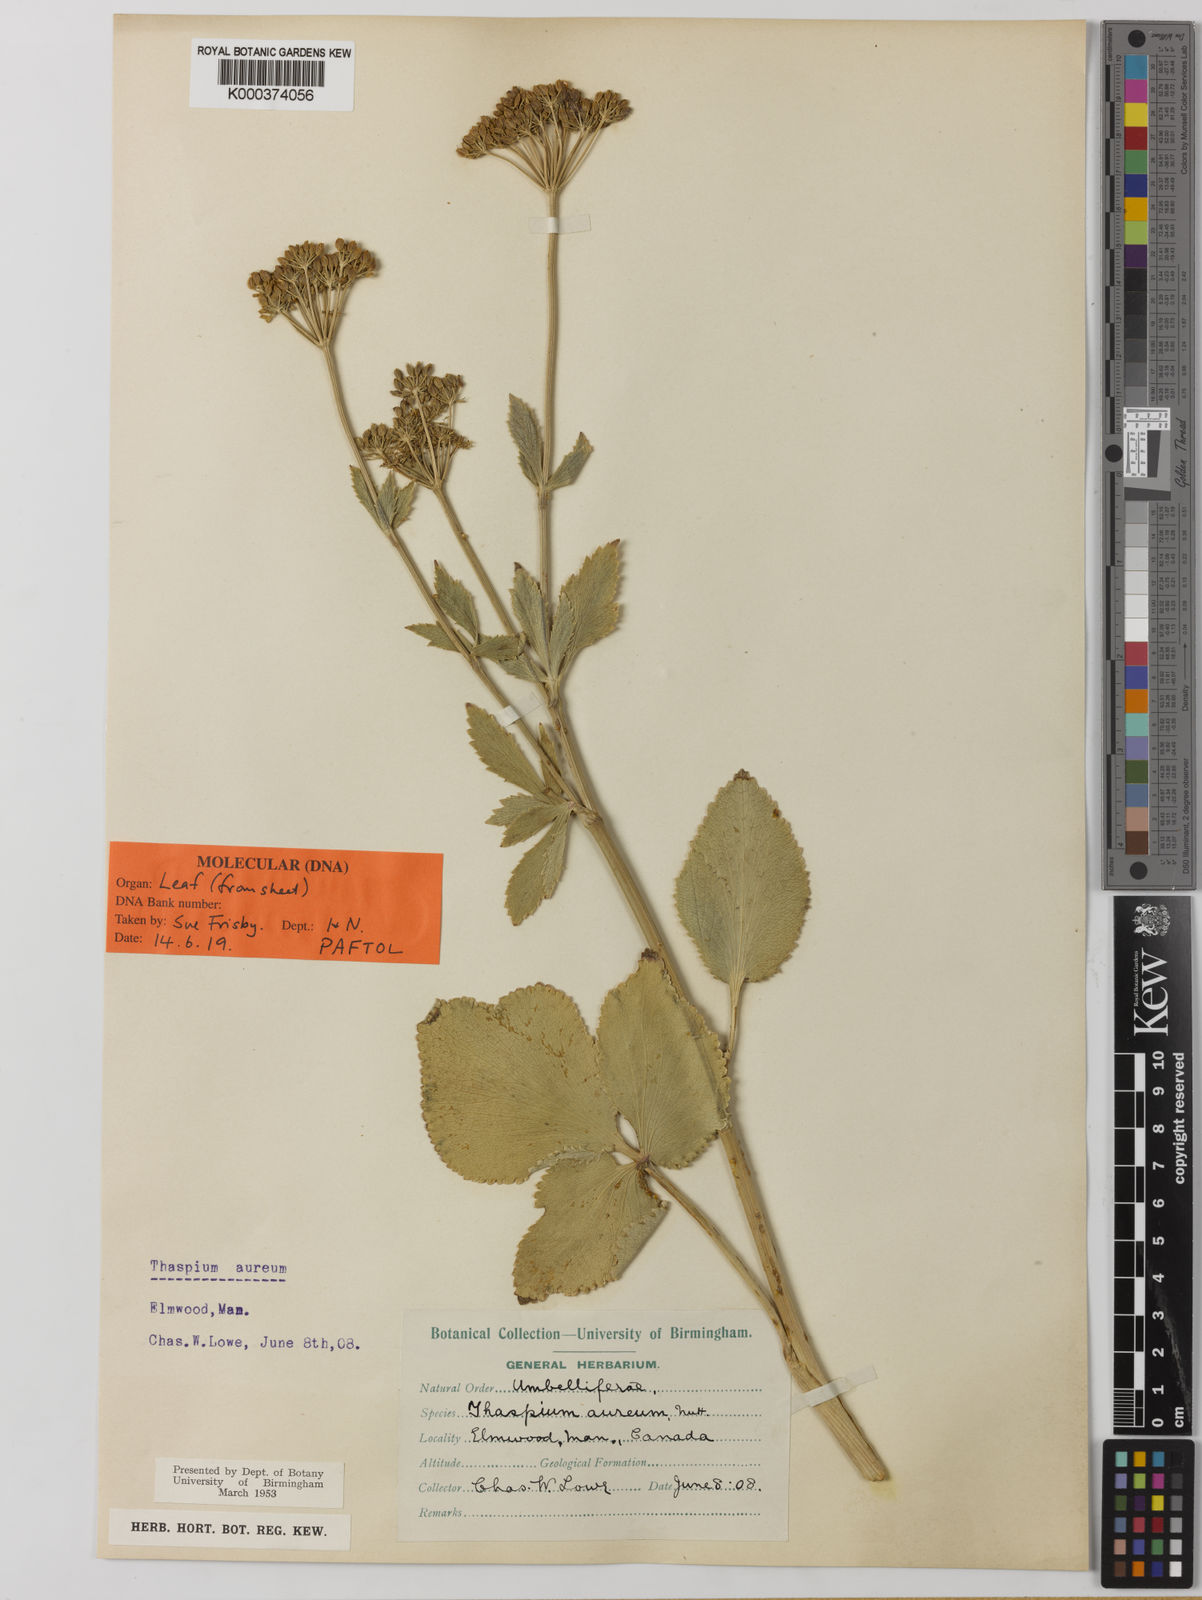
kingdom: Plantae
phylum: Tracheophyta
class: Magnoliopsida
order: Apiales
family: Apiaceae
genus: Thaspium
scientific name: Thaspium trifoliatum
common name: Purple meadow-parsnip
